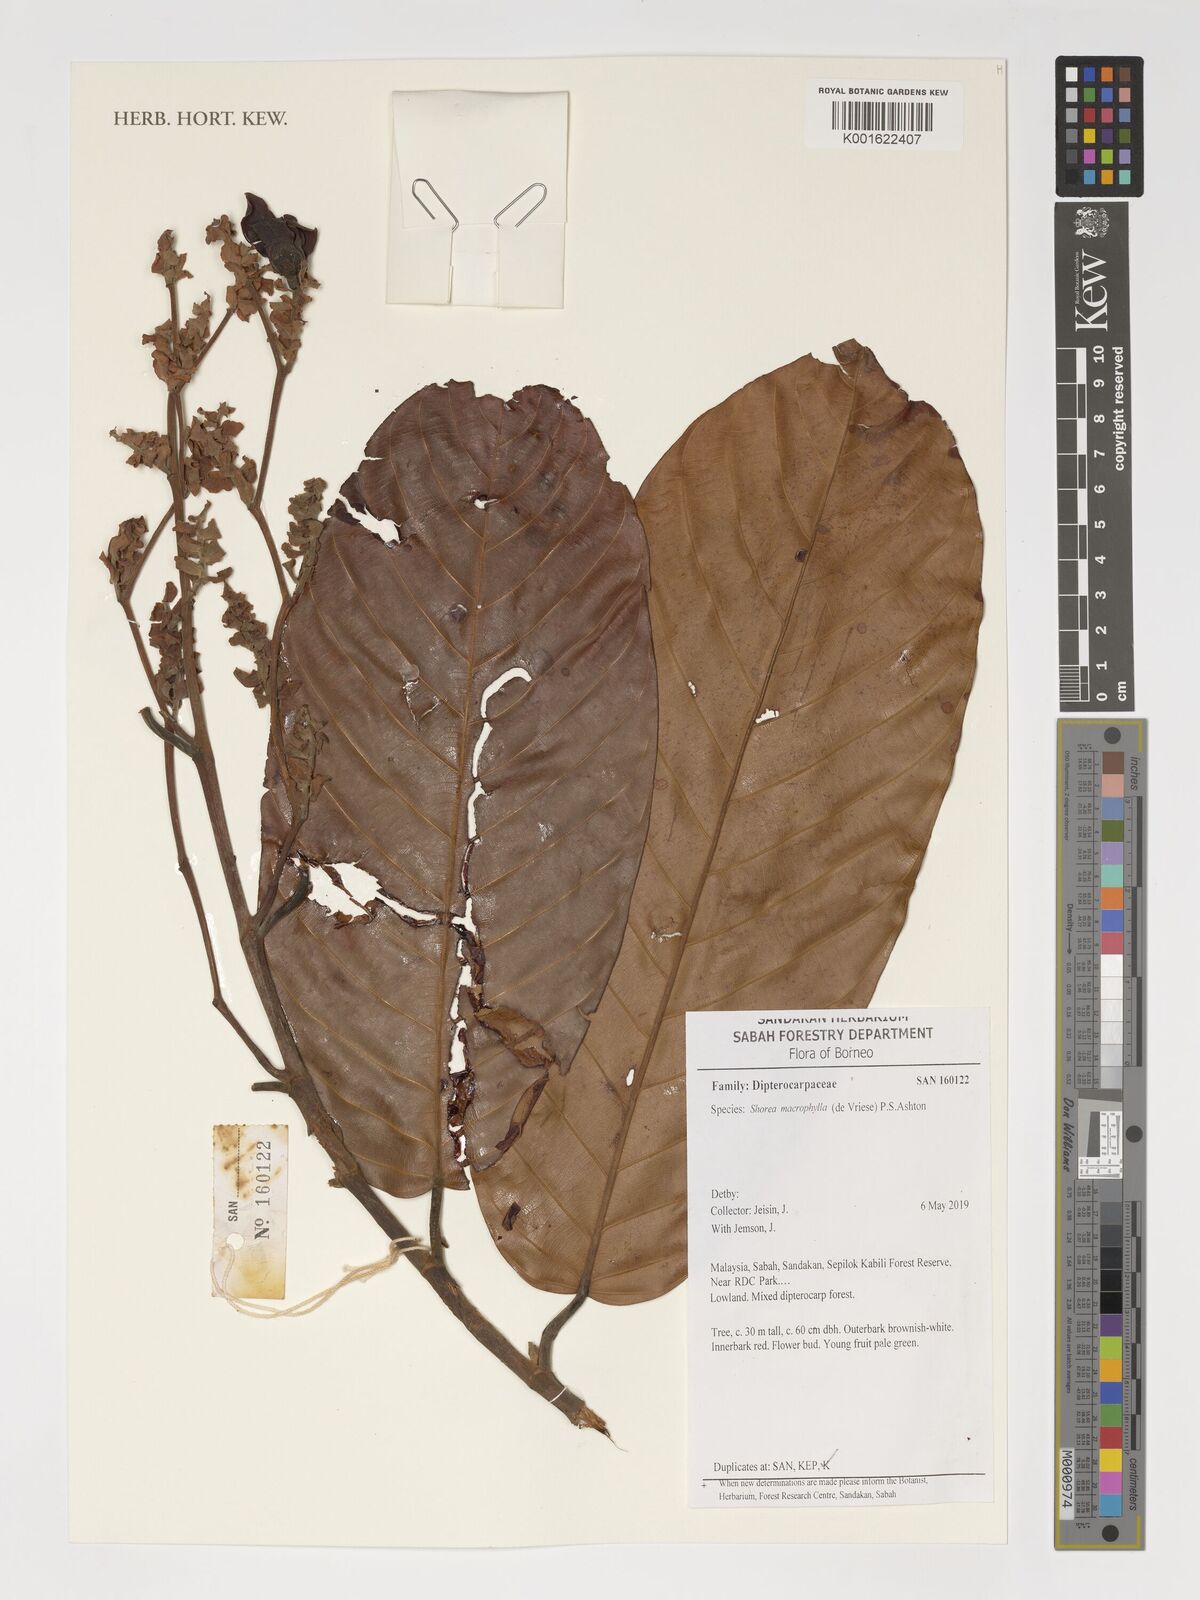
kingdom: Plantae
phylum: Tracheophyta
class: Magnoliopsida
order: Malvales
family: Dipterocarpaceae
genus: Shorea
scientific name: Shorea macrophylla
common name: Light red meranti
